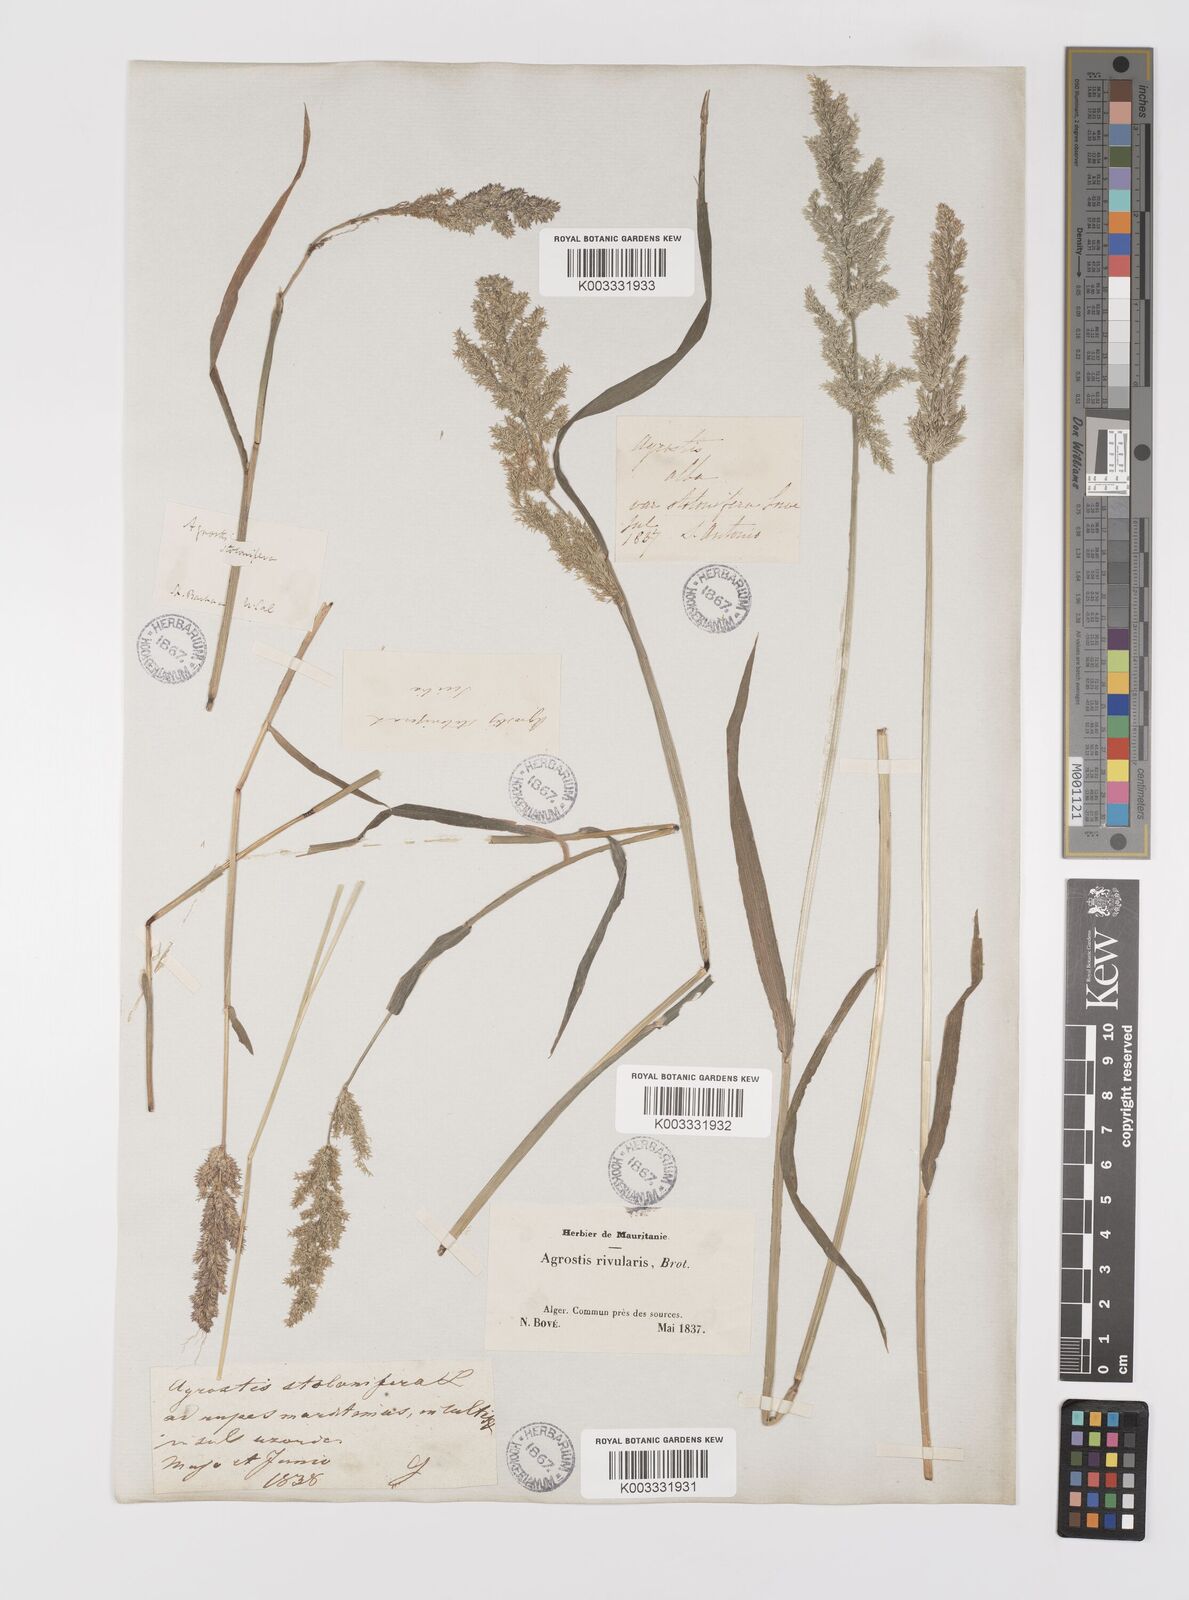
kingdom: Plantae
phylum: Tracheophyta
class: Liliopsida
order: Poales
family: Poaceae
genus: Polypogon
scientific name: Polypogon viridis
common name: Water bent
